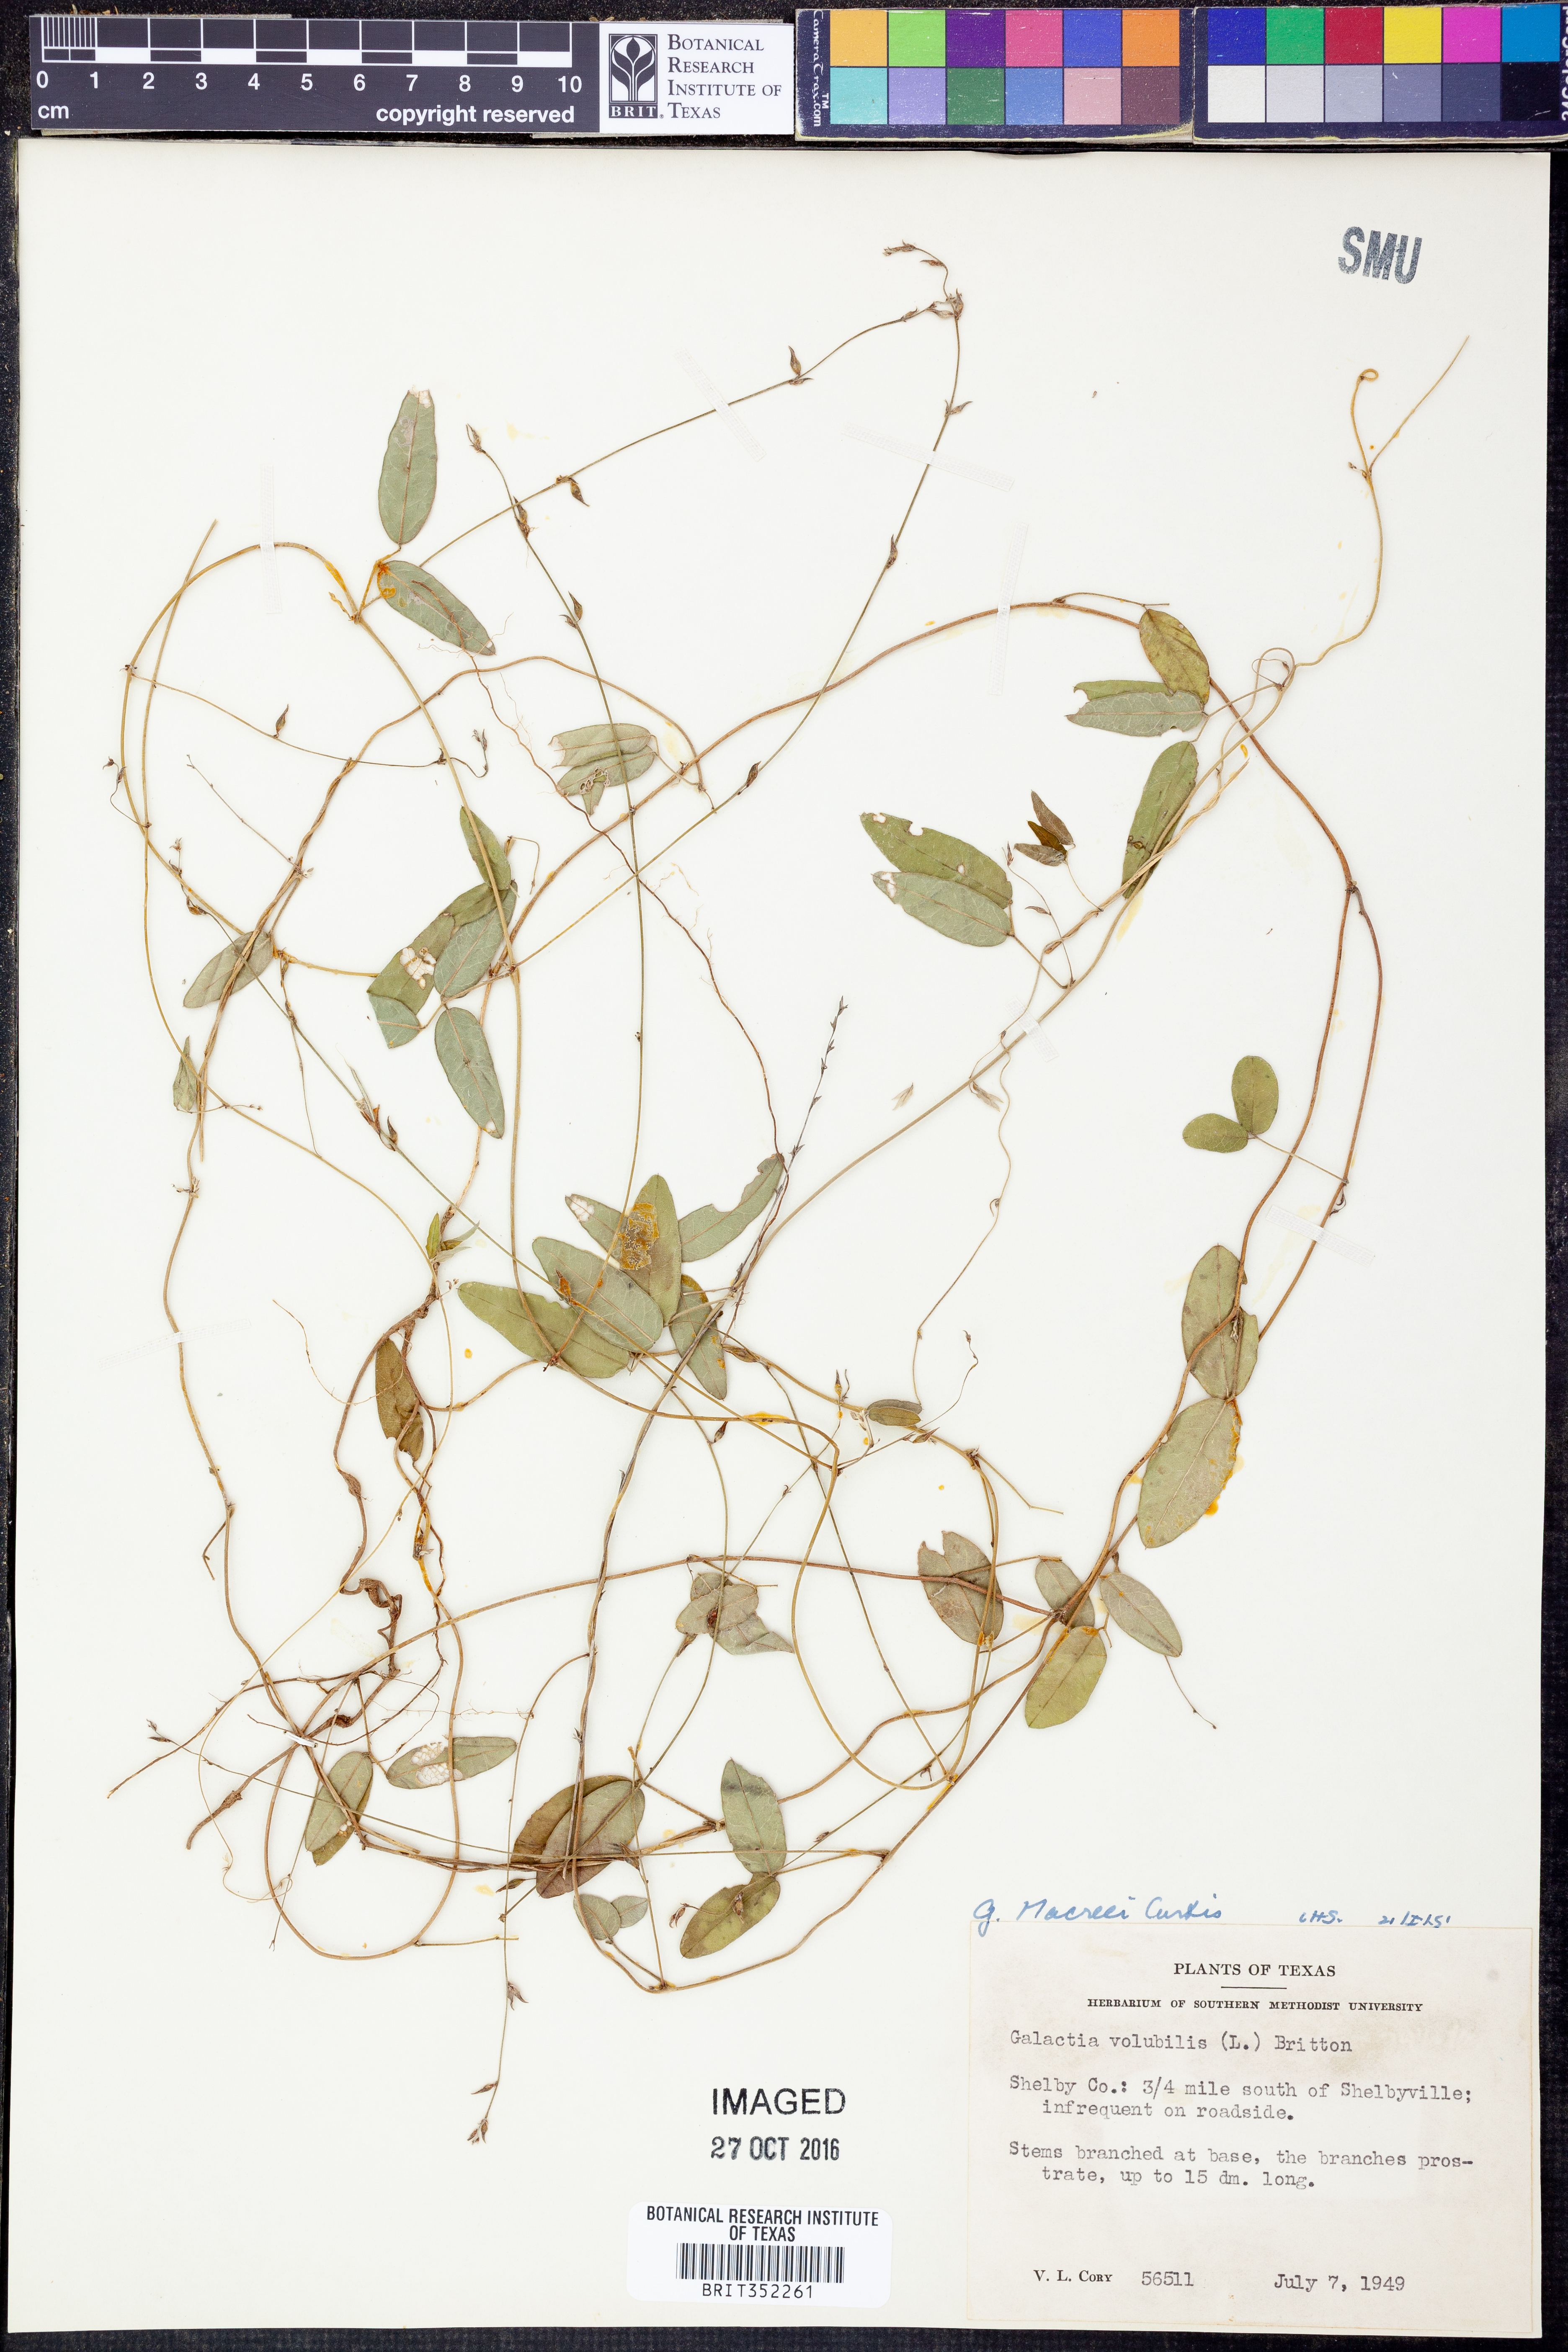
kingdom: Plantae
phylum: Tracheophyta
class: Magnoliopsida
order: Fabales
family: Fabaceae
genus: Galactia
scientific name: Galactia volubilis
